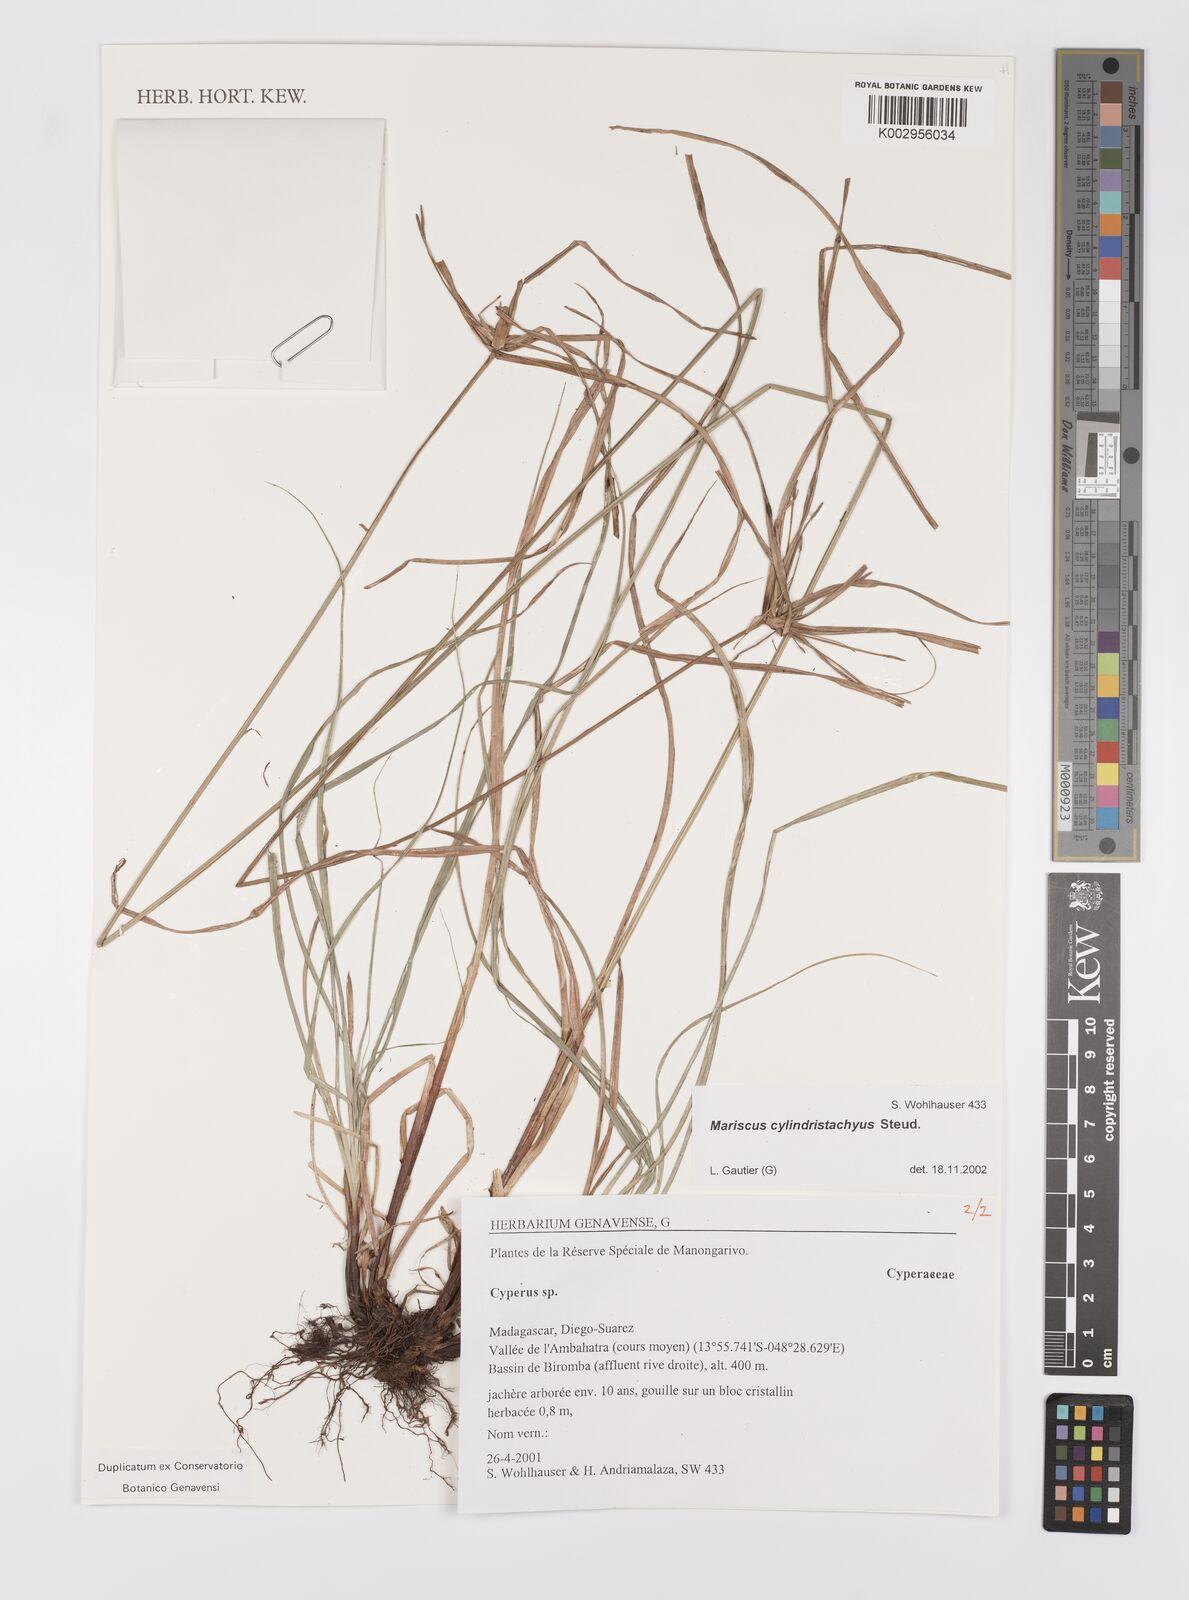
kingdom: Plantae
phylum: Tracheophyta
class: Liliopsida
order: Poales
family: Cyperaceae
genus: Cyperus
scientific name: Cyperus cyperoides
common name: Pacific island flat sedge
